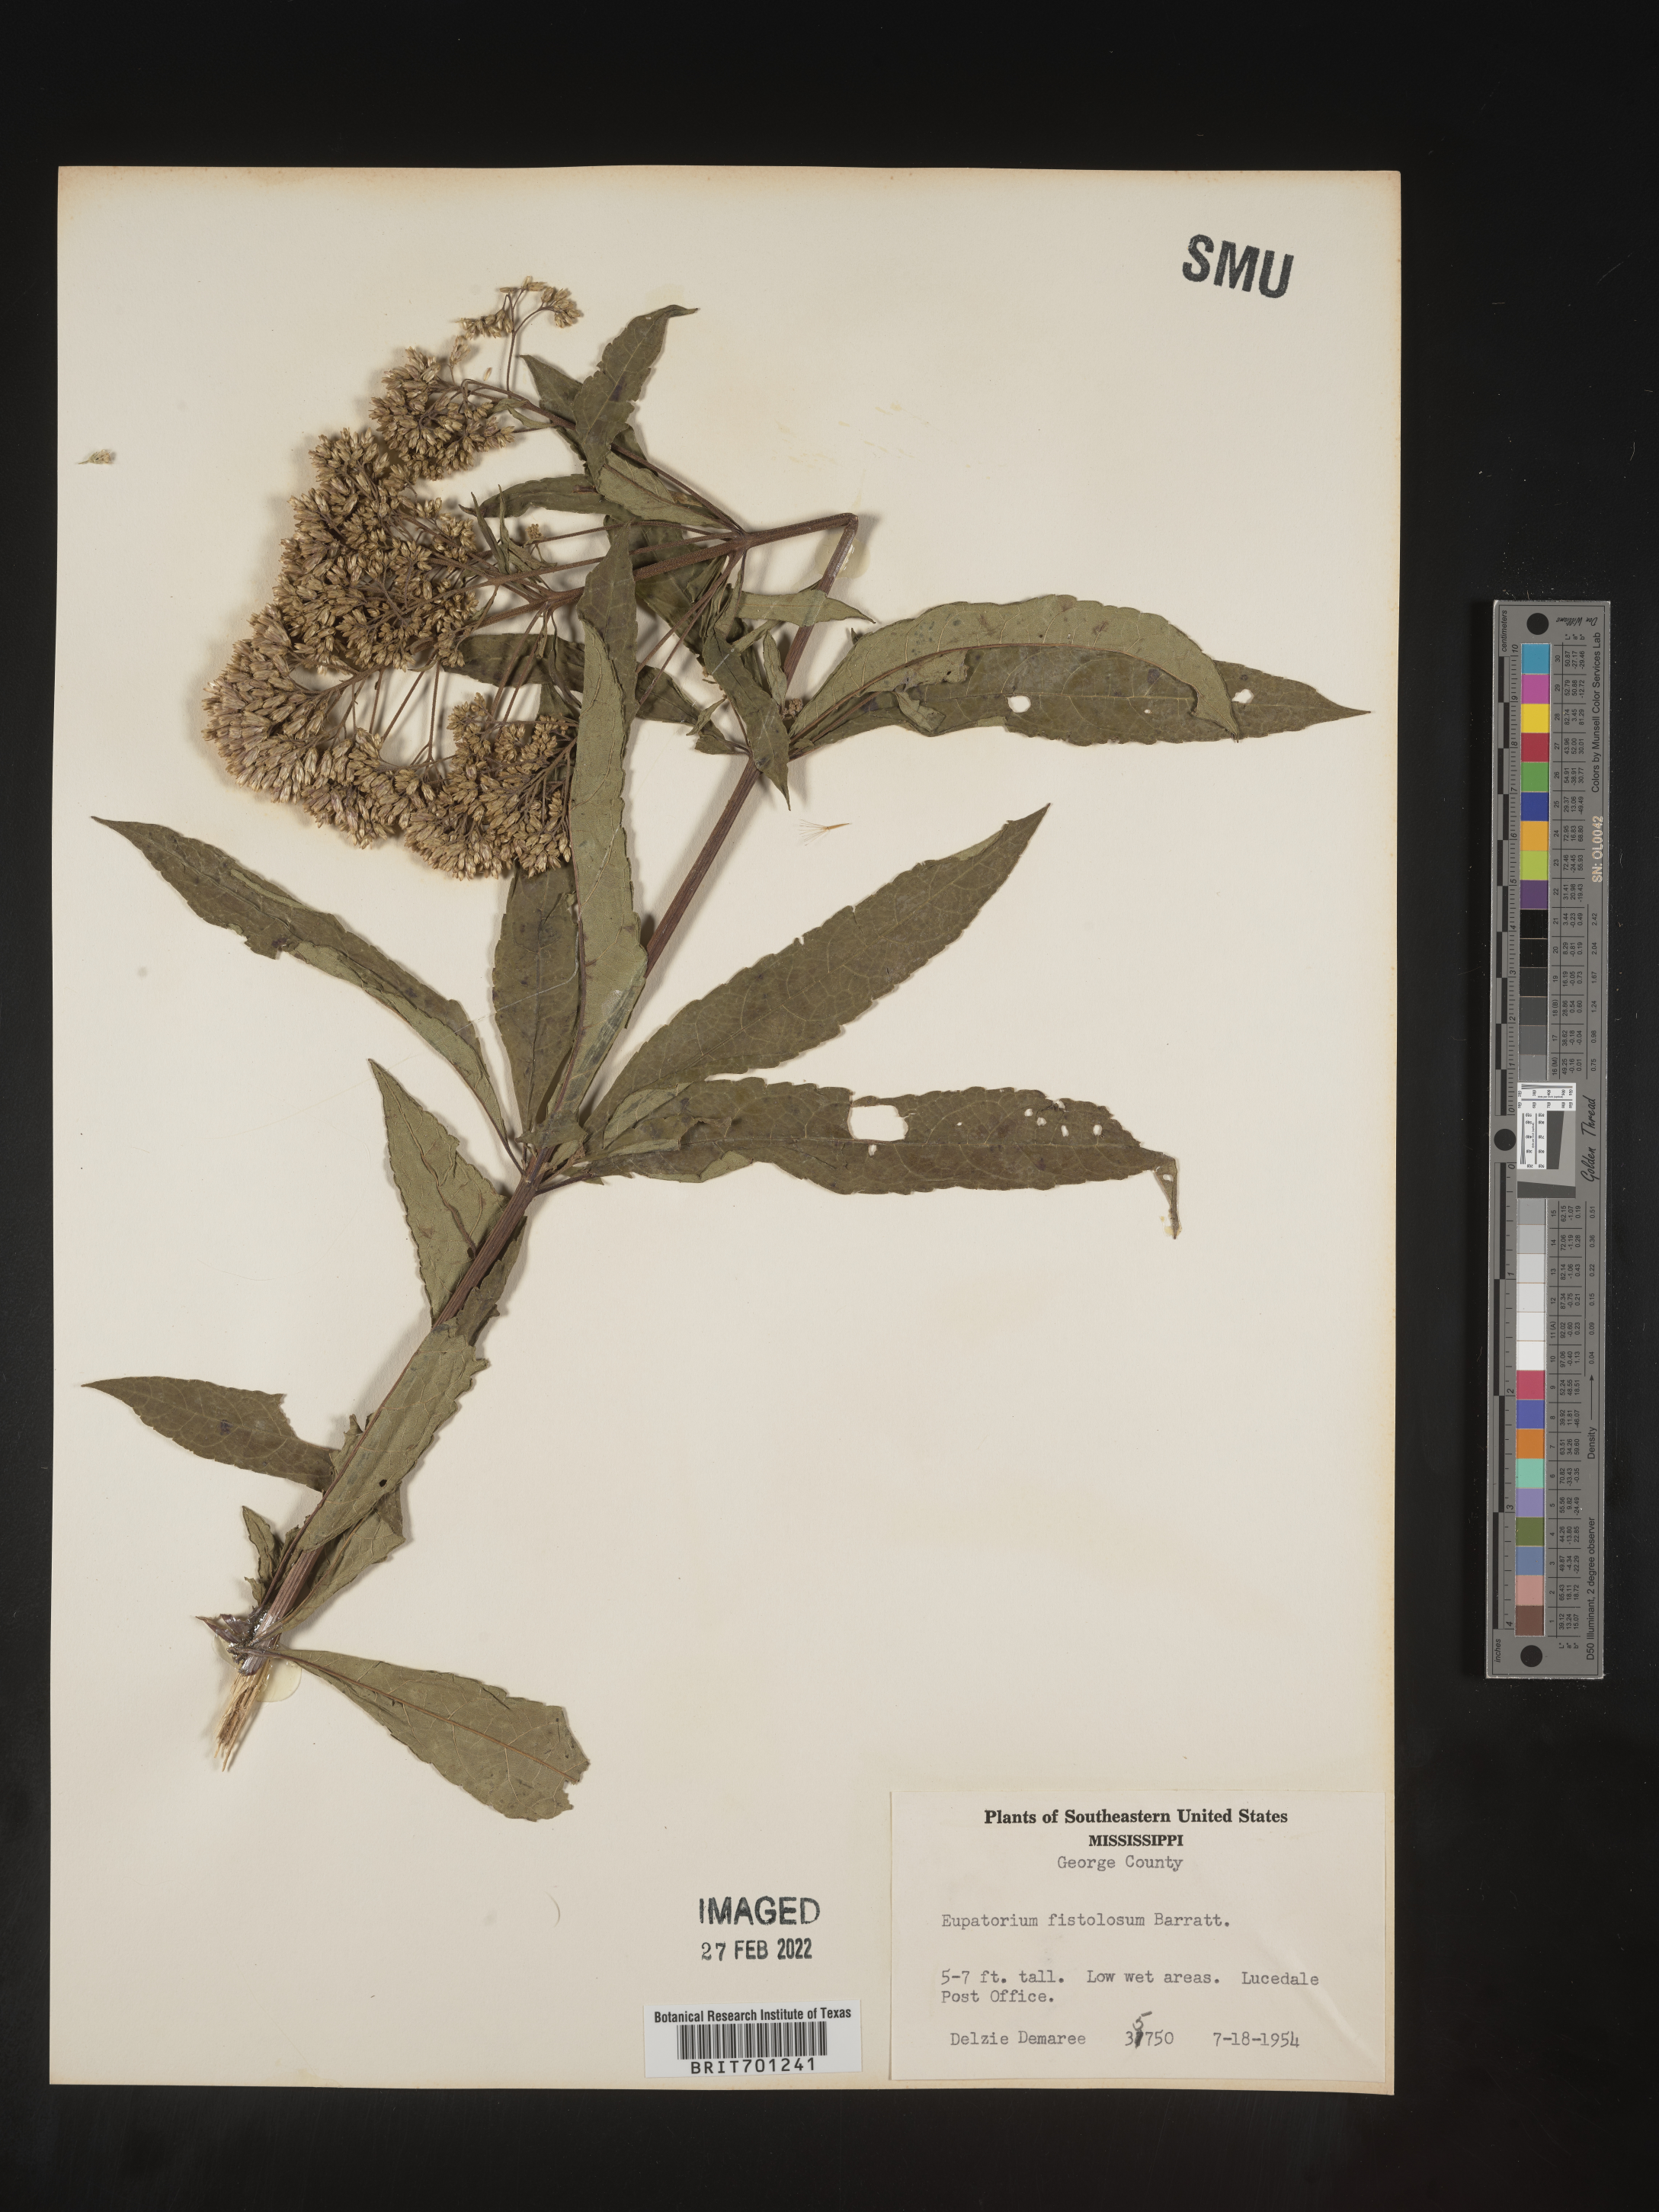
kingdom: Plantae
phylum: Tracheophyta
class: Magnoliopsida
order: Asterales
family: Asteraceae
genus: Eutrochium
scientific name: Eutrochium fistulosum
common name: Trumpetweed
